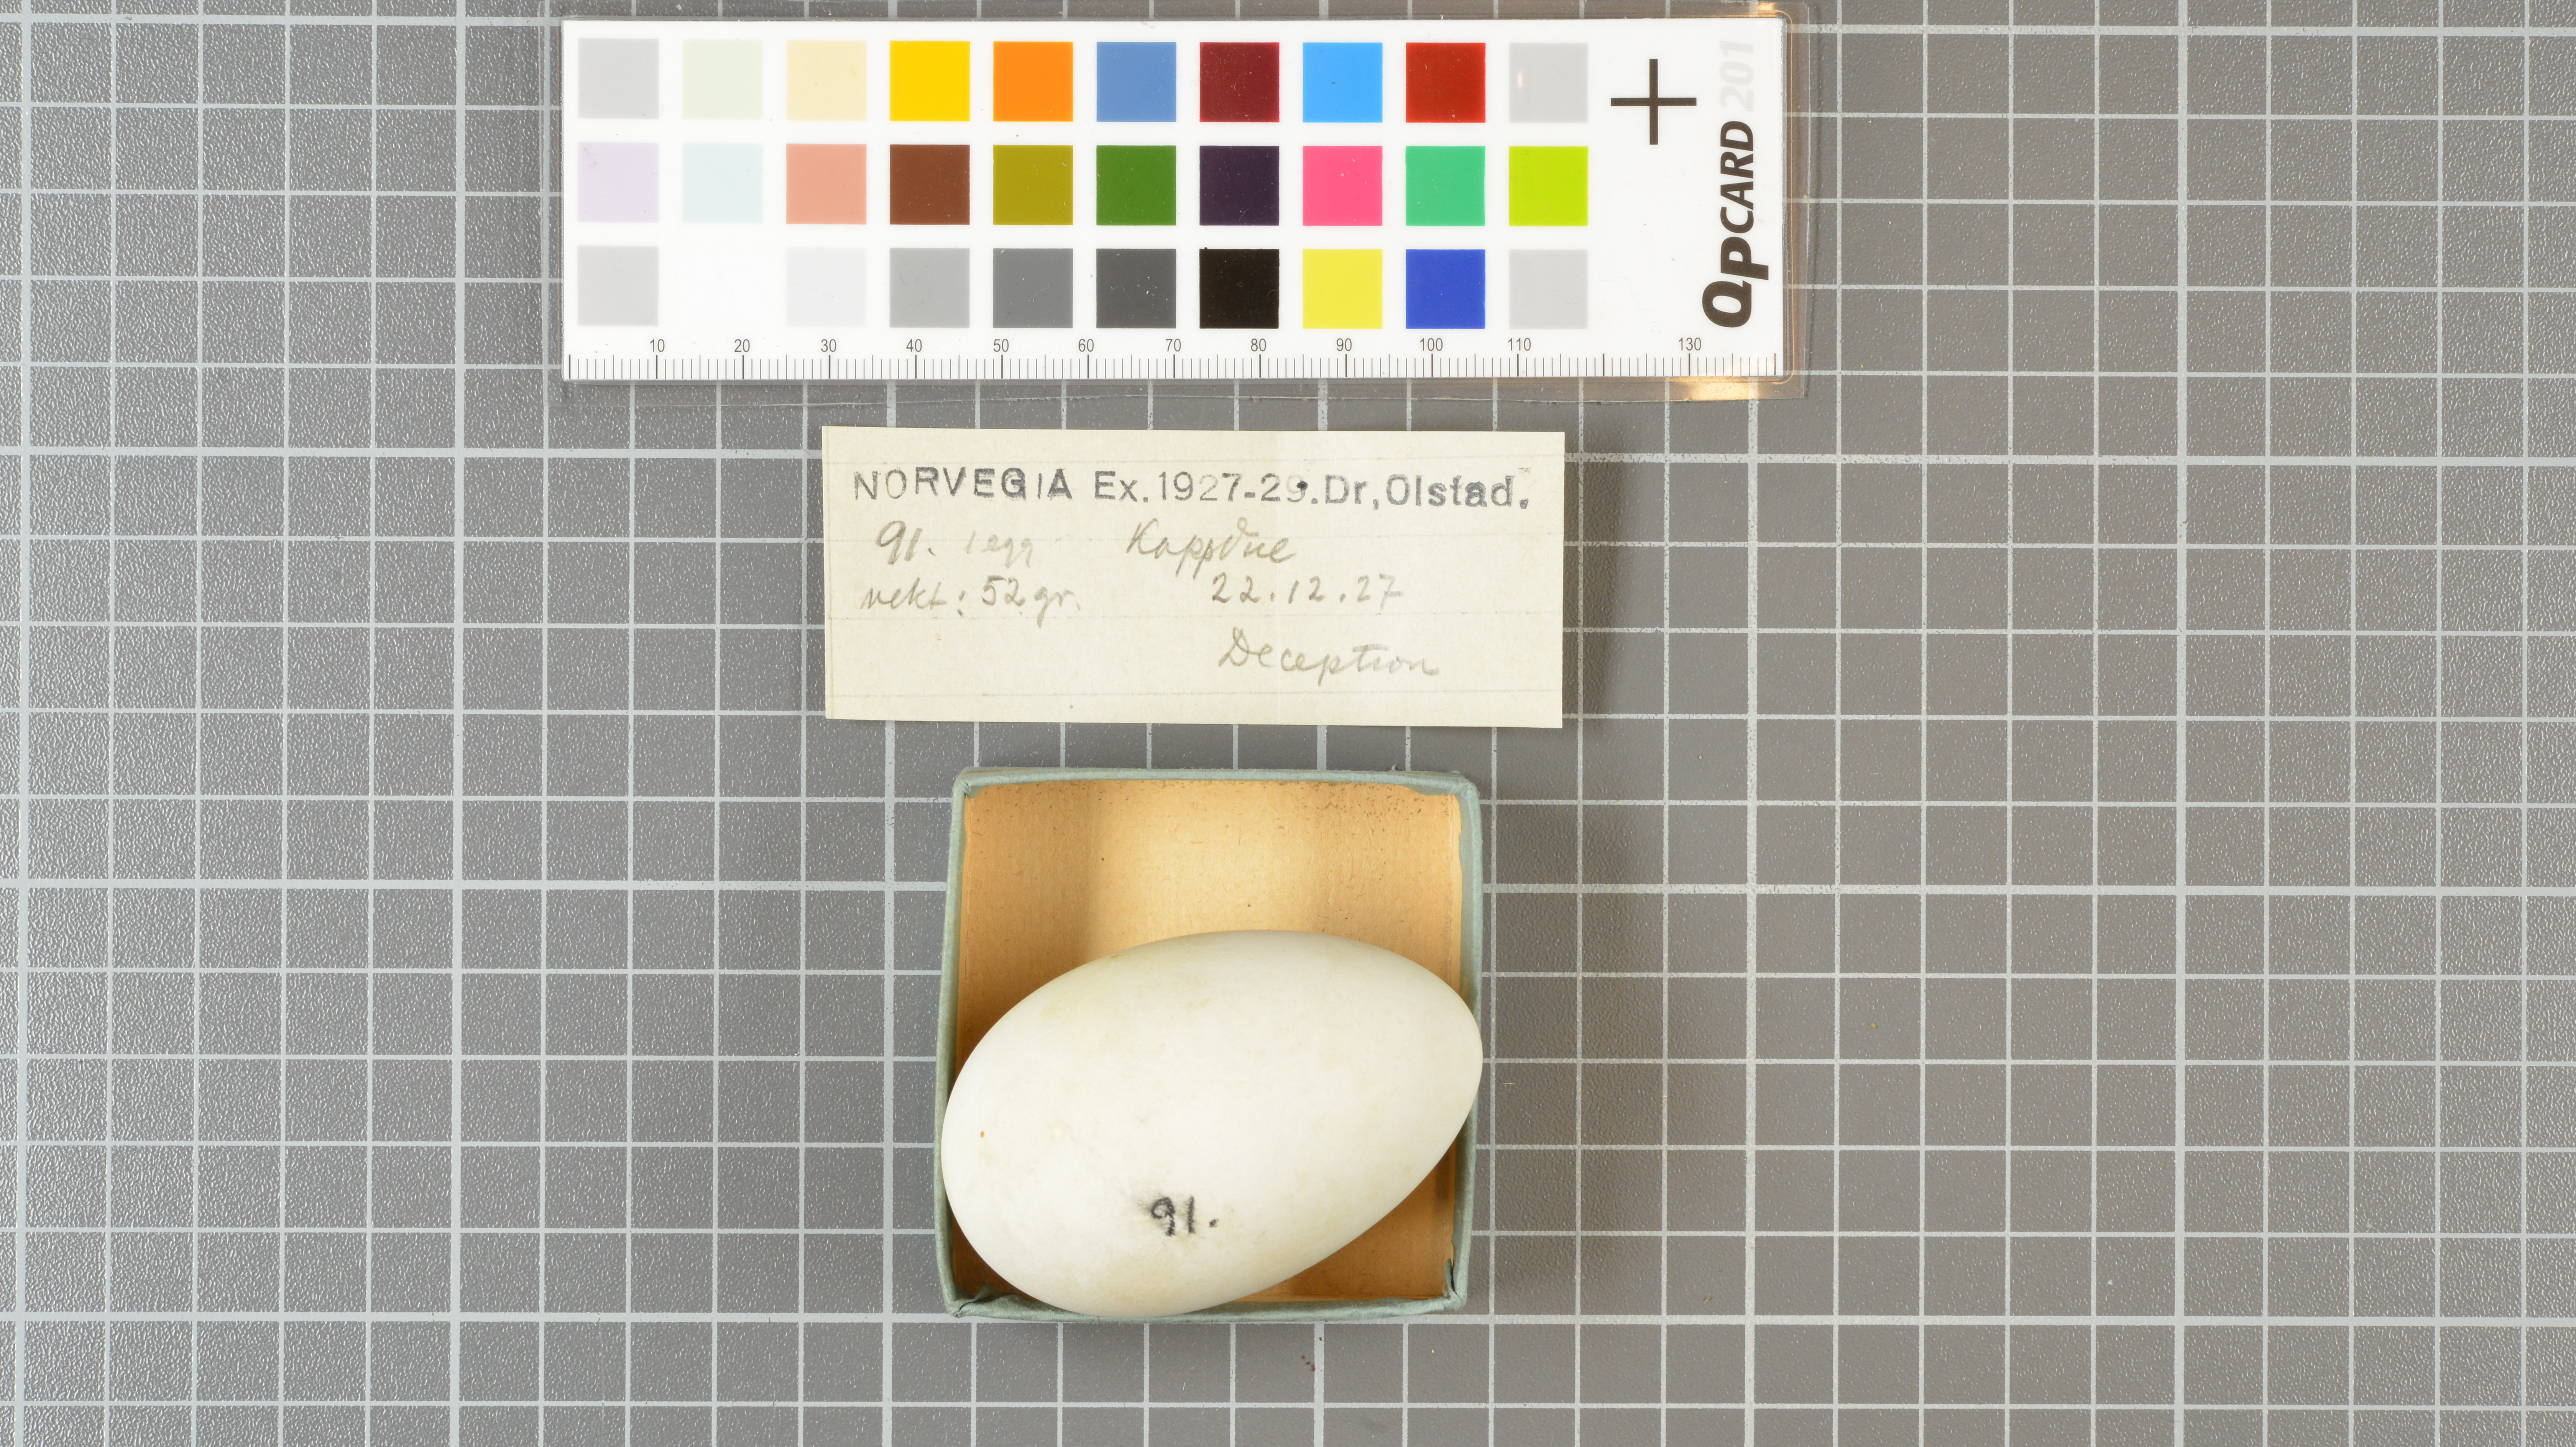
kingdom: Animalia
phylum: Chordata
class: Aves
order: Procellariiformes
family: Procellariidae
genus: Daption
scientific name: Daption capense
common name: Cape petrel
